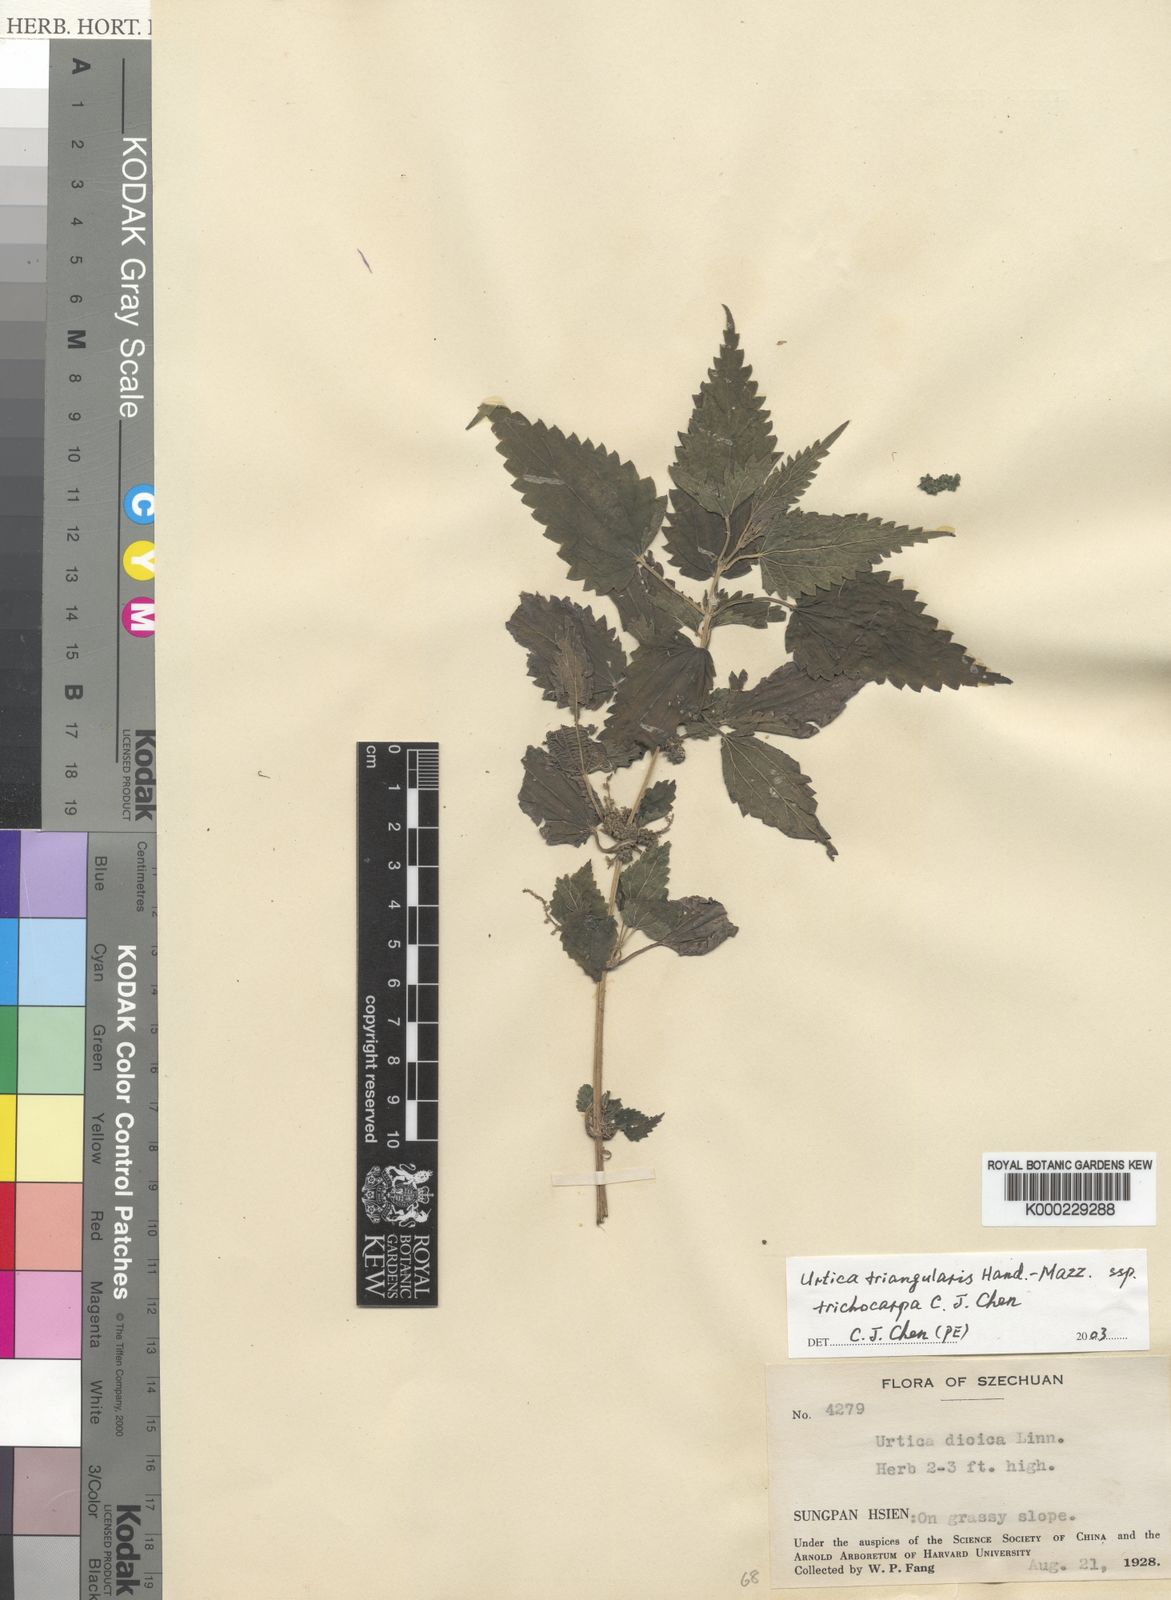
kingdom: Plantae
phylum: Tracheophyta
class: Magnoliopsida
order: Rosales
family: Urticaceae
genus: Urtica
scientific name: Urtica triangularis
